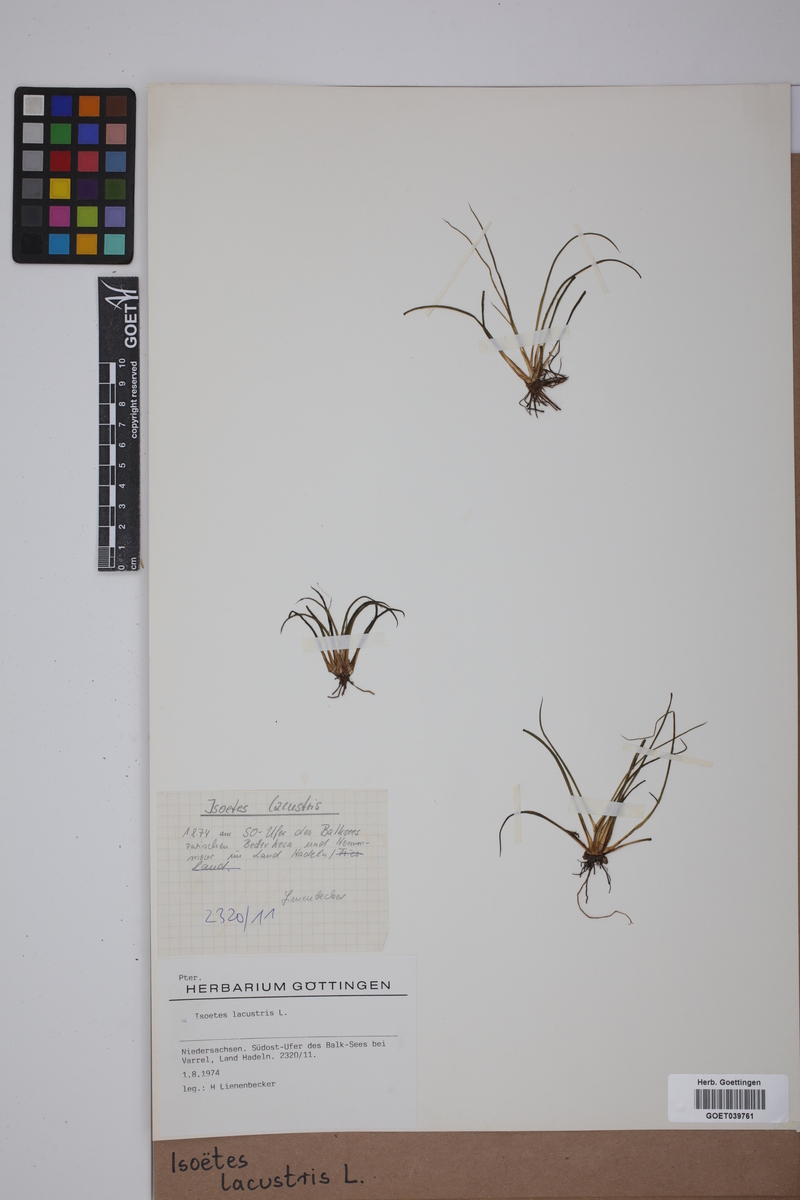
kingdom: Plantae
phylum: Tracheophyta
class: Lycopodiopsida
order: Isoetales
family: Isoetaceae
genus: Isoetes
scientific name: Isoetes lacustris
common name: Common quillwort
